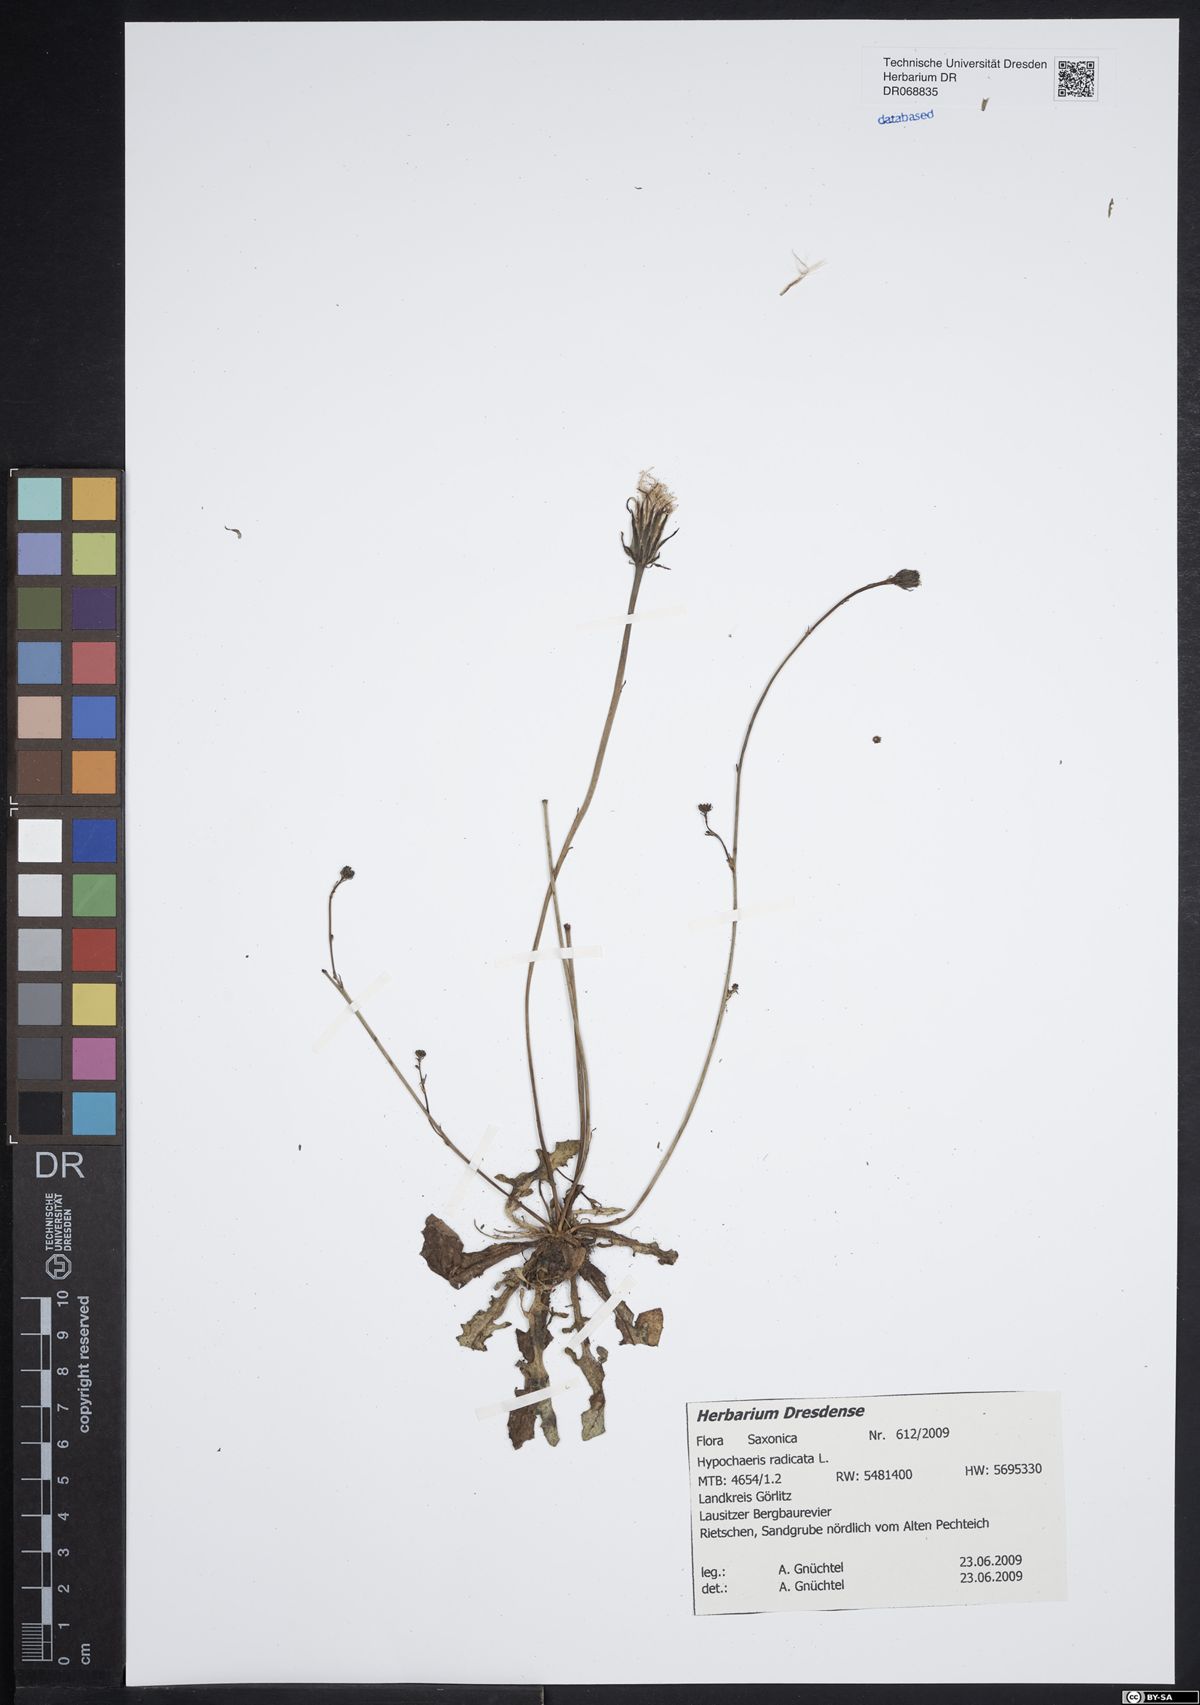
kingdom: Plantae
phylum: Tracheophyta
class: Magnoliopsida
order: Asterales
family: Asteraceae
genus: Hypochaeris
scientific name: Hypochaeris radicata
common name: Flatweed
